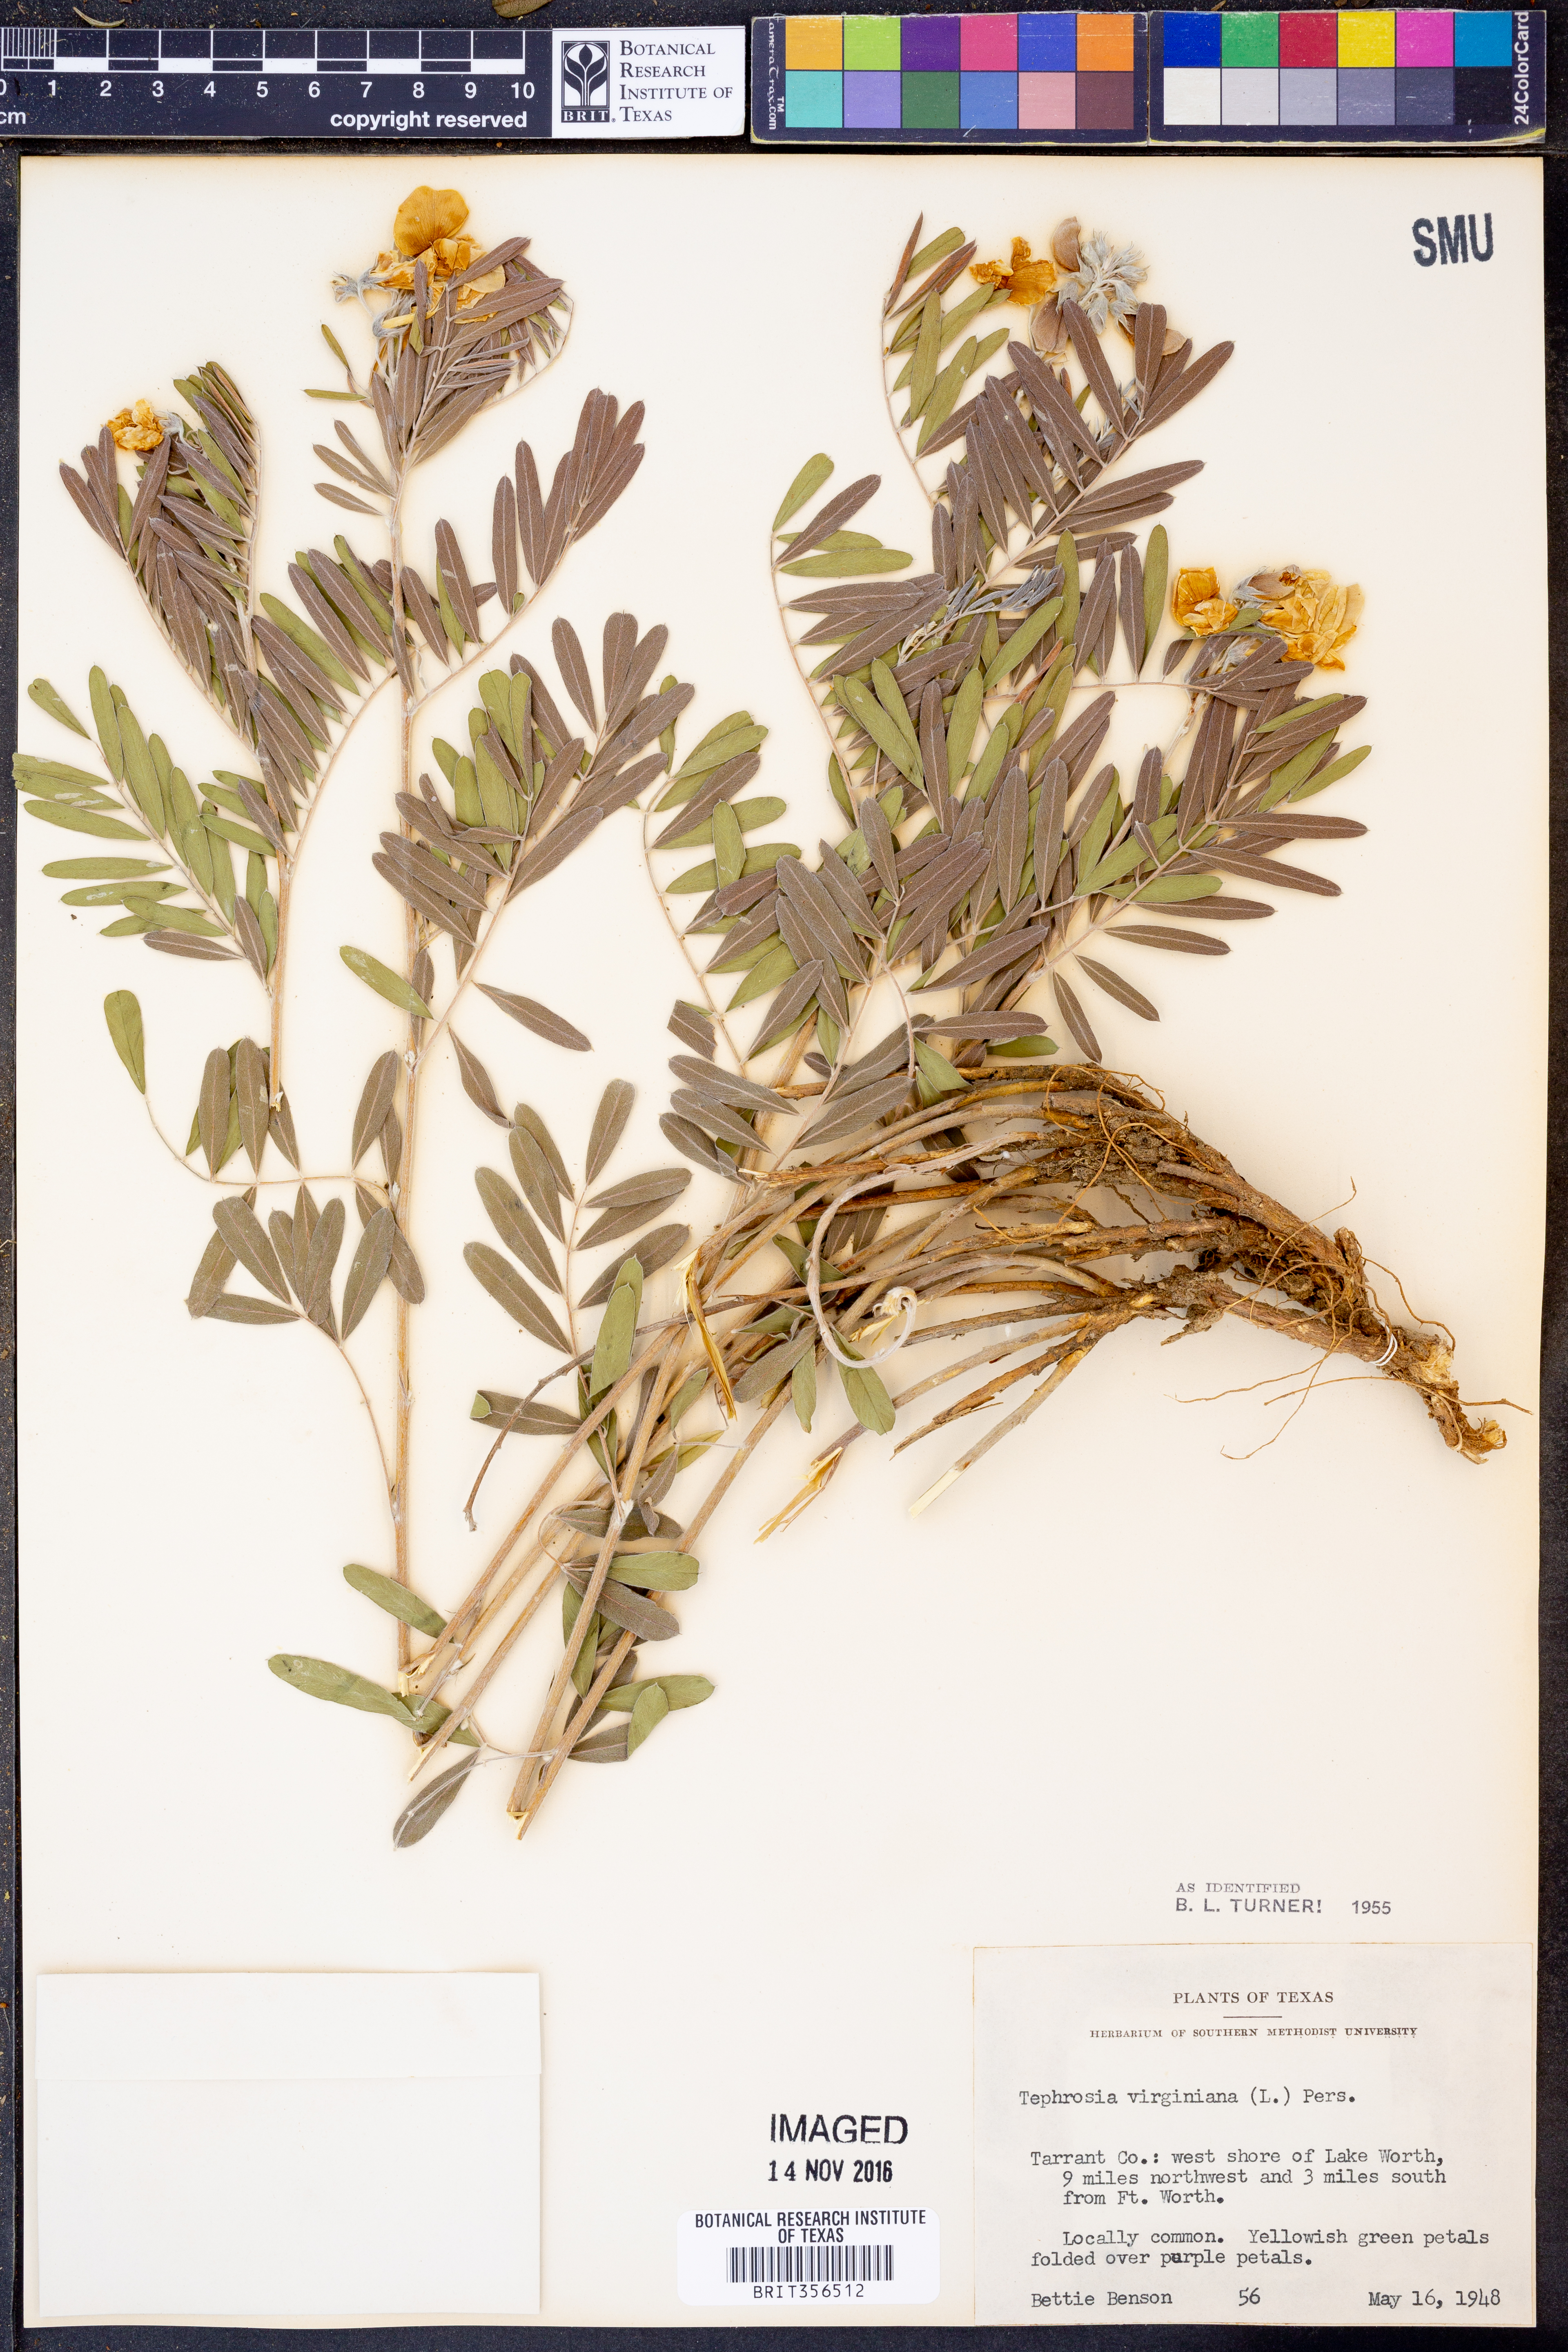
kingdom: Plantae
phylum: Tracheophyta
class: Magnoliopsida
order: Fabales
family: Fabaceae
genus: Tephrosia
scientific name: Tephrosia virginiana
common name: Rabbit-pea
